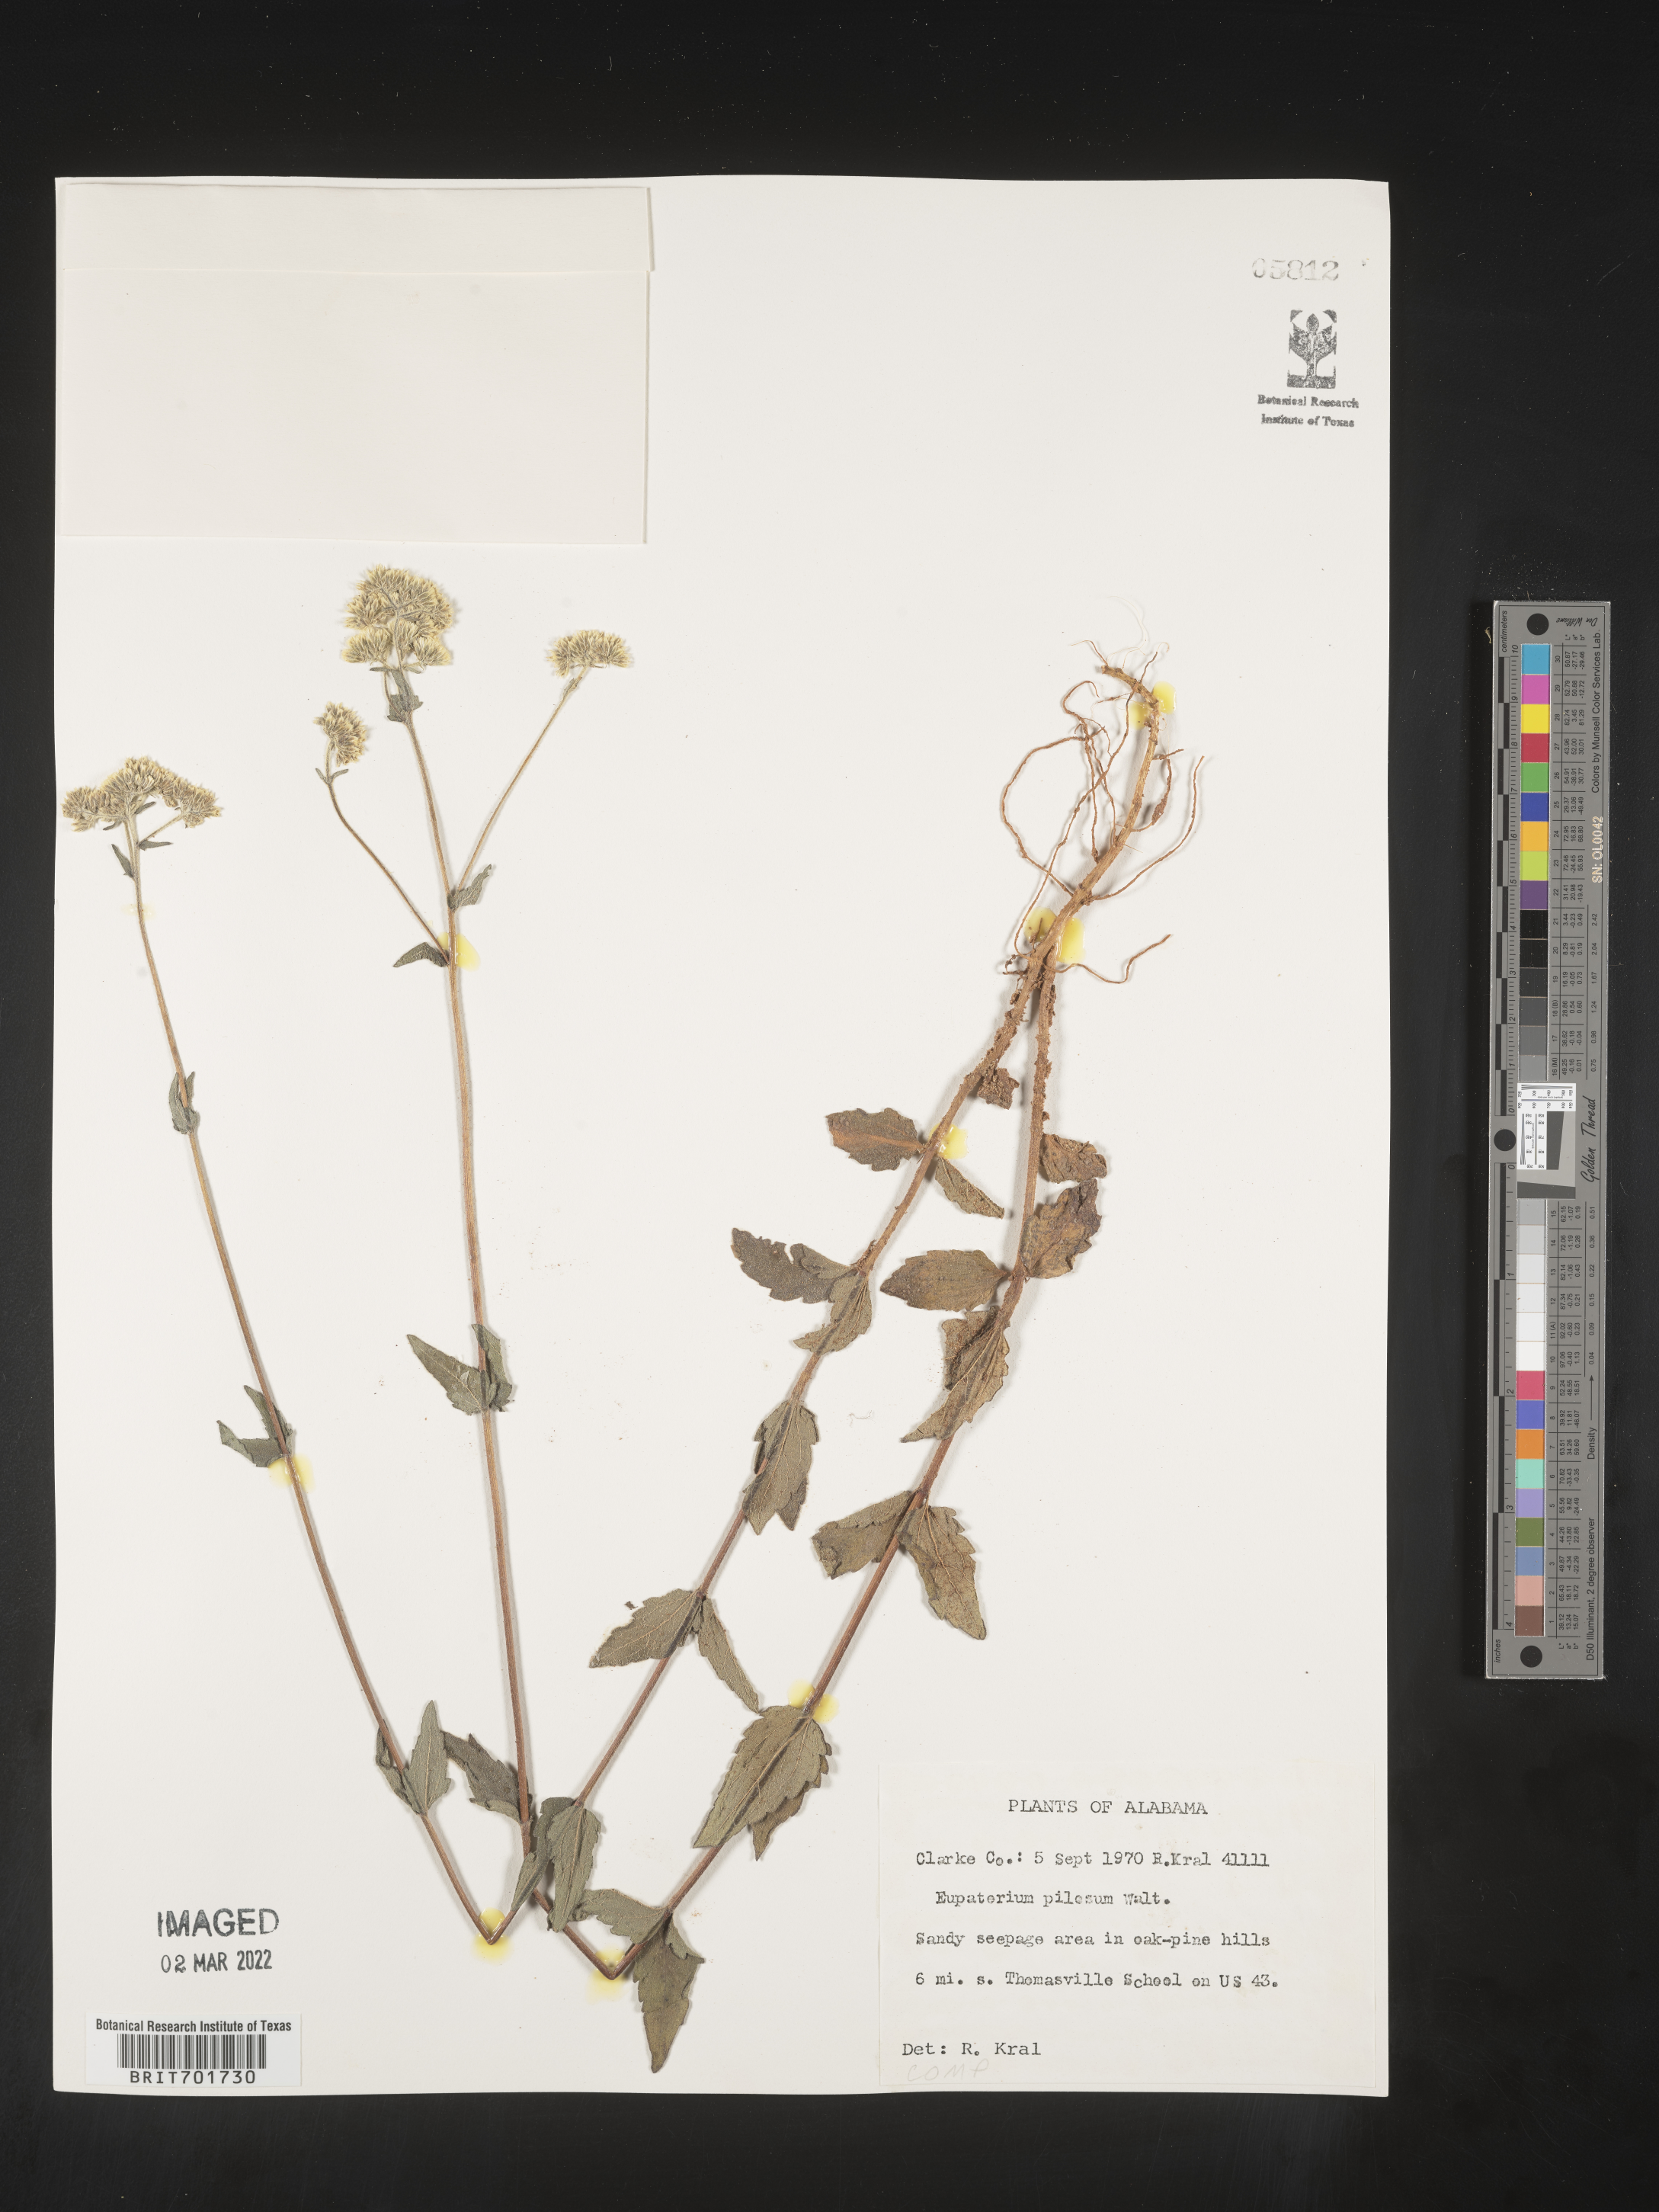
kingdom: Plantae
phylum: Tracheophyta
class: Magnoliopsida
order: Asterales
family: Asteraceae
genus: Eupatorium
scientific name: Eupatorium pilosum
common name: Rough boneset
